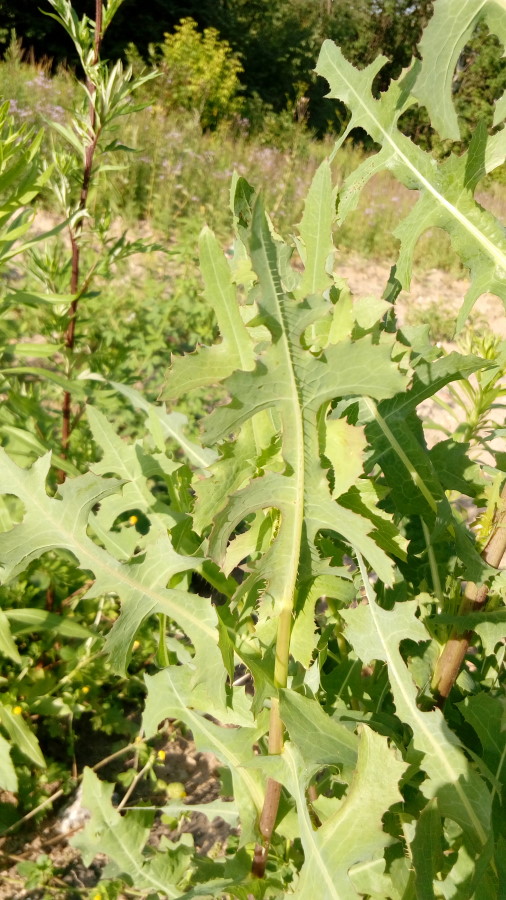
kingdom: Plantae
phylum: Tracheophyta
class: Magnoliopsida
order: Asterales
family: Asteraceae
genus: Lactuca
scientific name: Lactuca serriola
